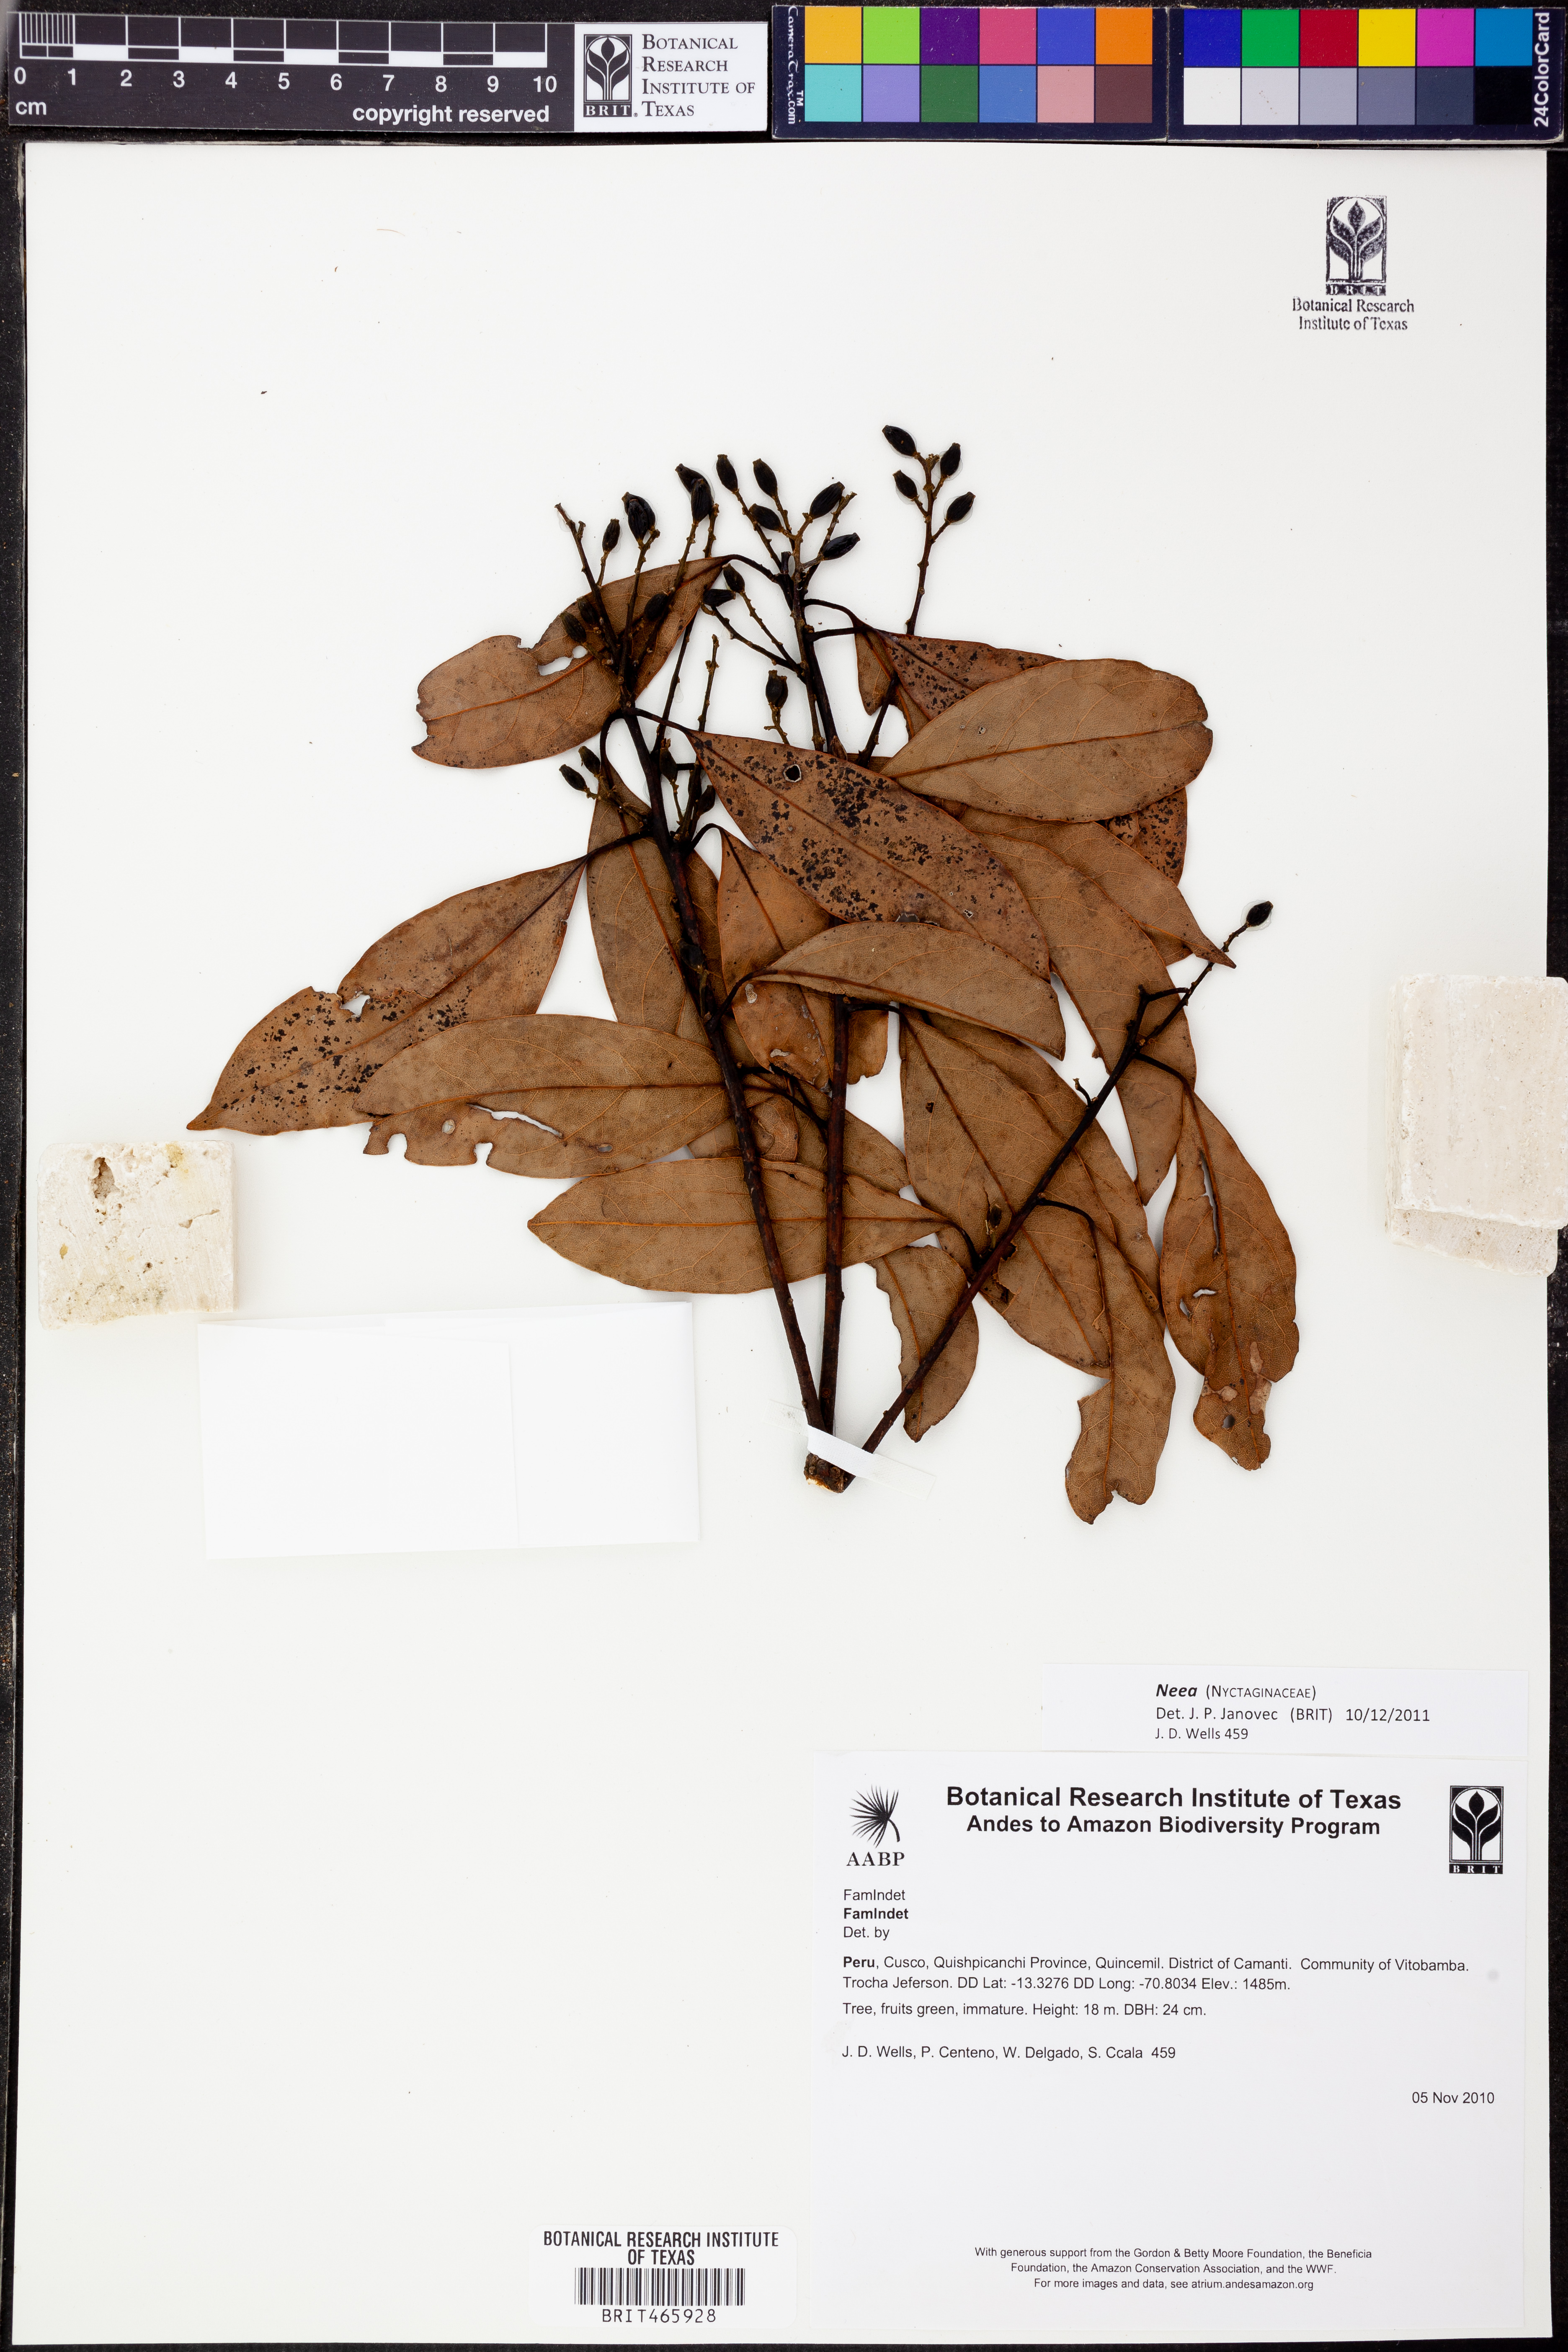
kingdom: Plantae
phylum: Tracheophyta
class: Magnoliopsida
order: Caryophyllales
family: Nyctaginaceae
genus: Neea
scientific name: Neea
